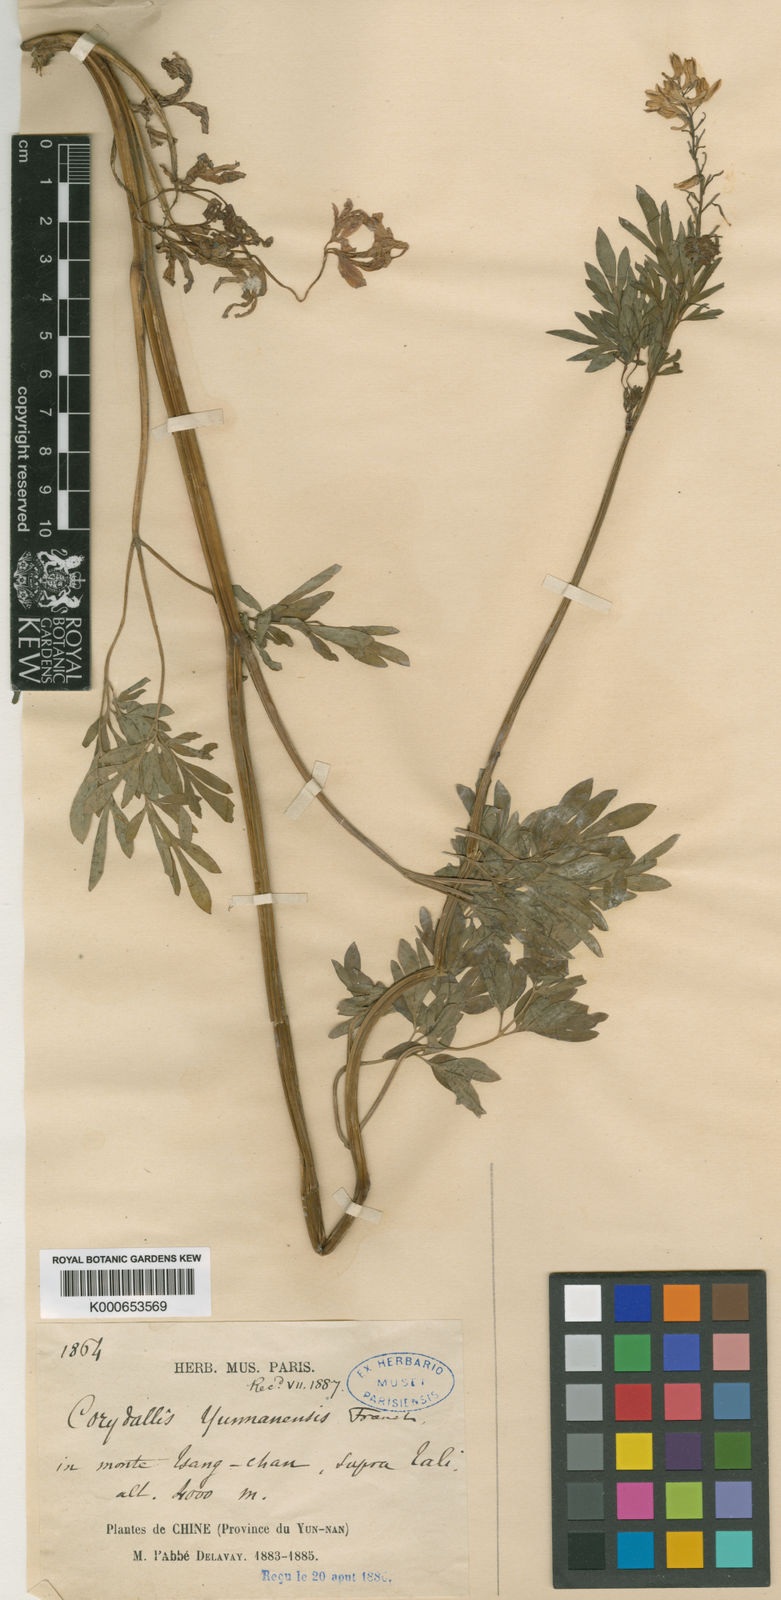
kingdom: Plantae
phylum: Tracheophyta
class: Magnoliopsida
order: Ranunculales
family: Papaveraceae
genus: Corydalis
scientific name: Corydalis yunnanensis
